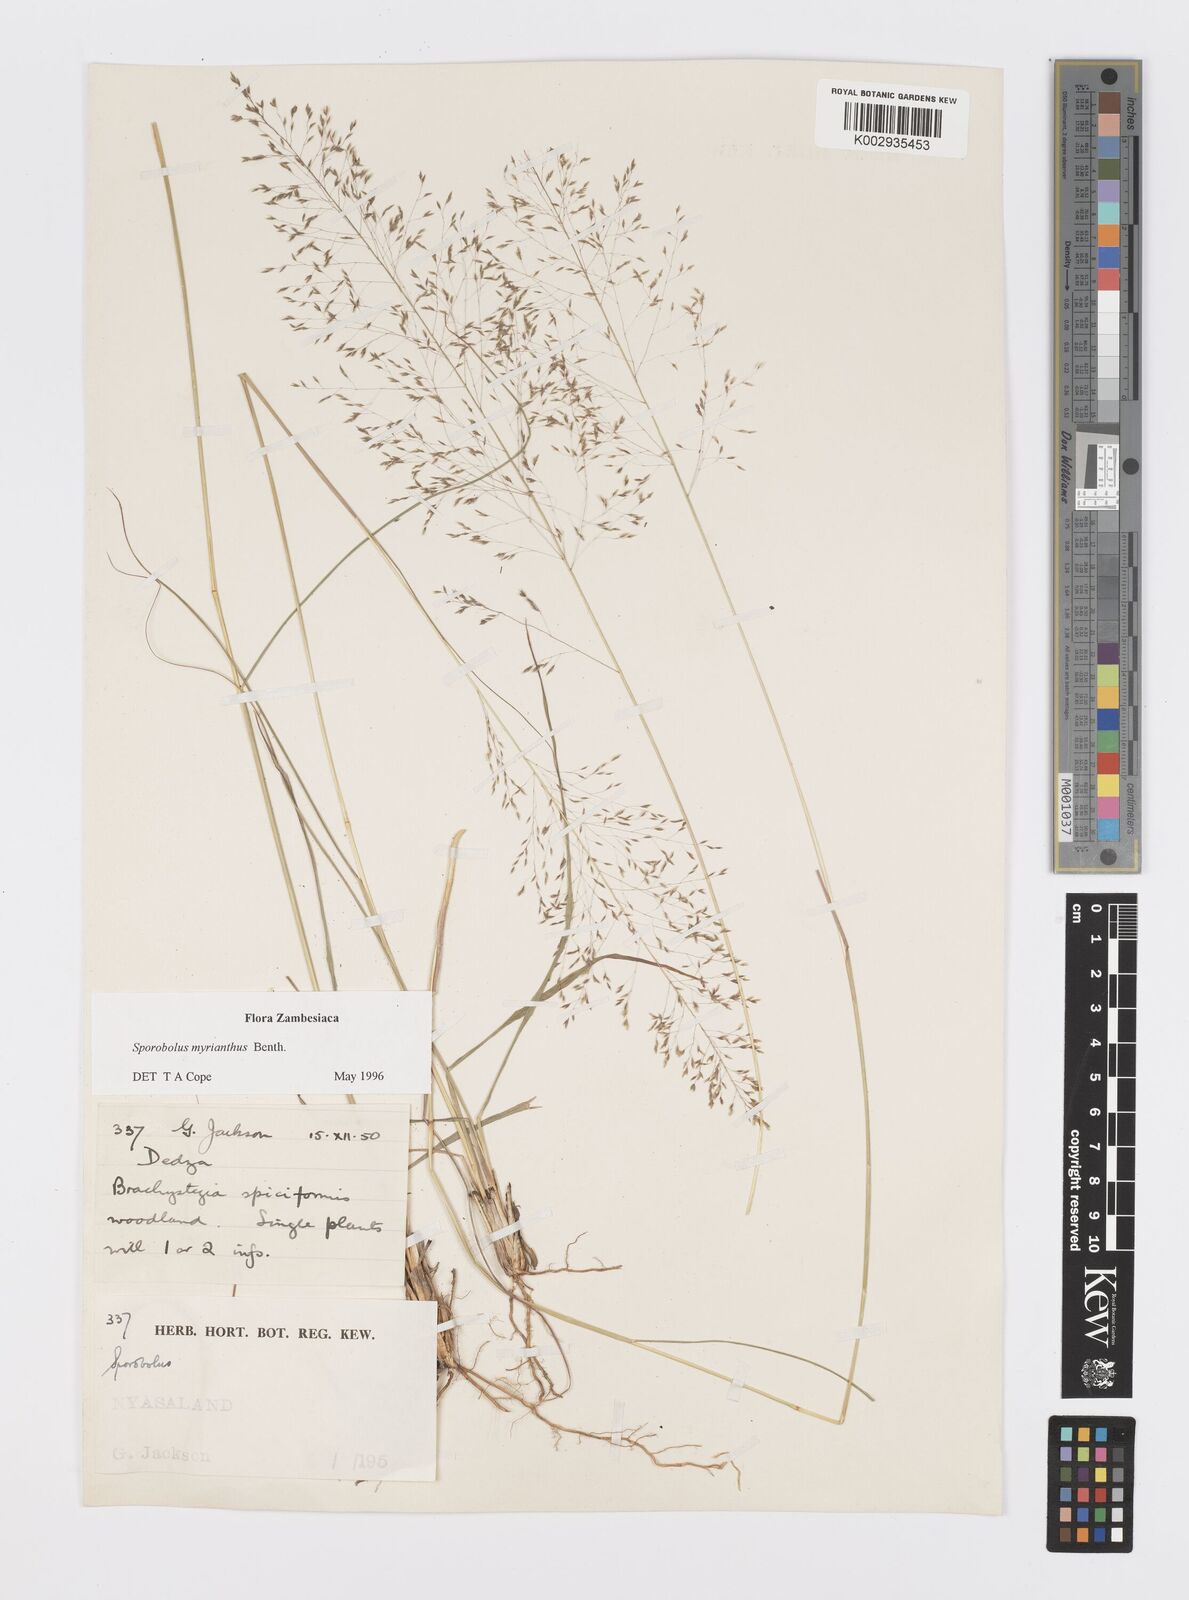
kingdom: Plantae
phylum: Tracheophyta
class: Liliopsida
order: Poales
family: Poaceae
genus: Sporobolus
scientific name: Sporobolus myrianthus
